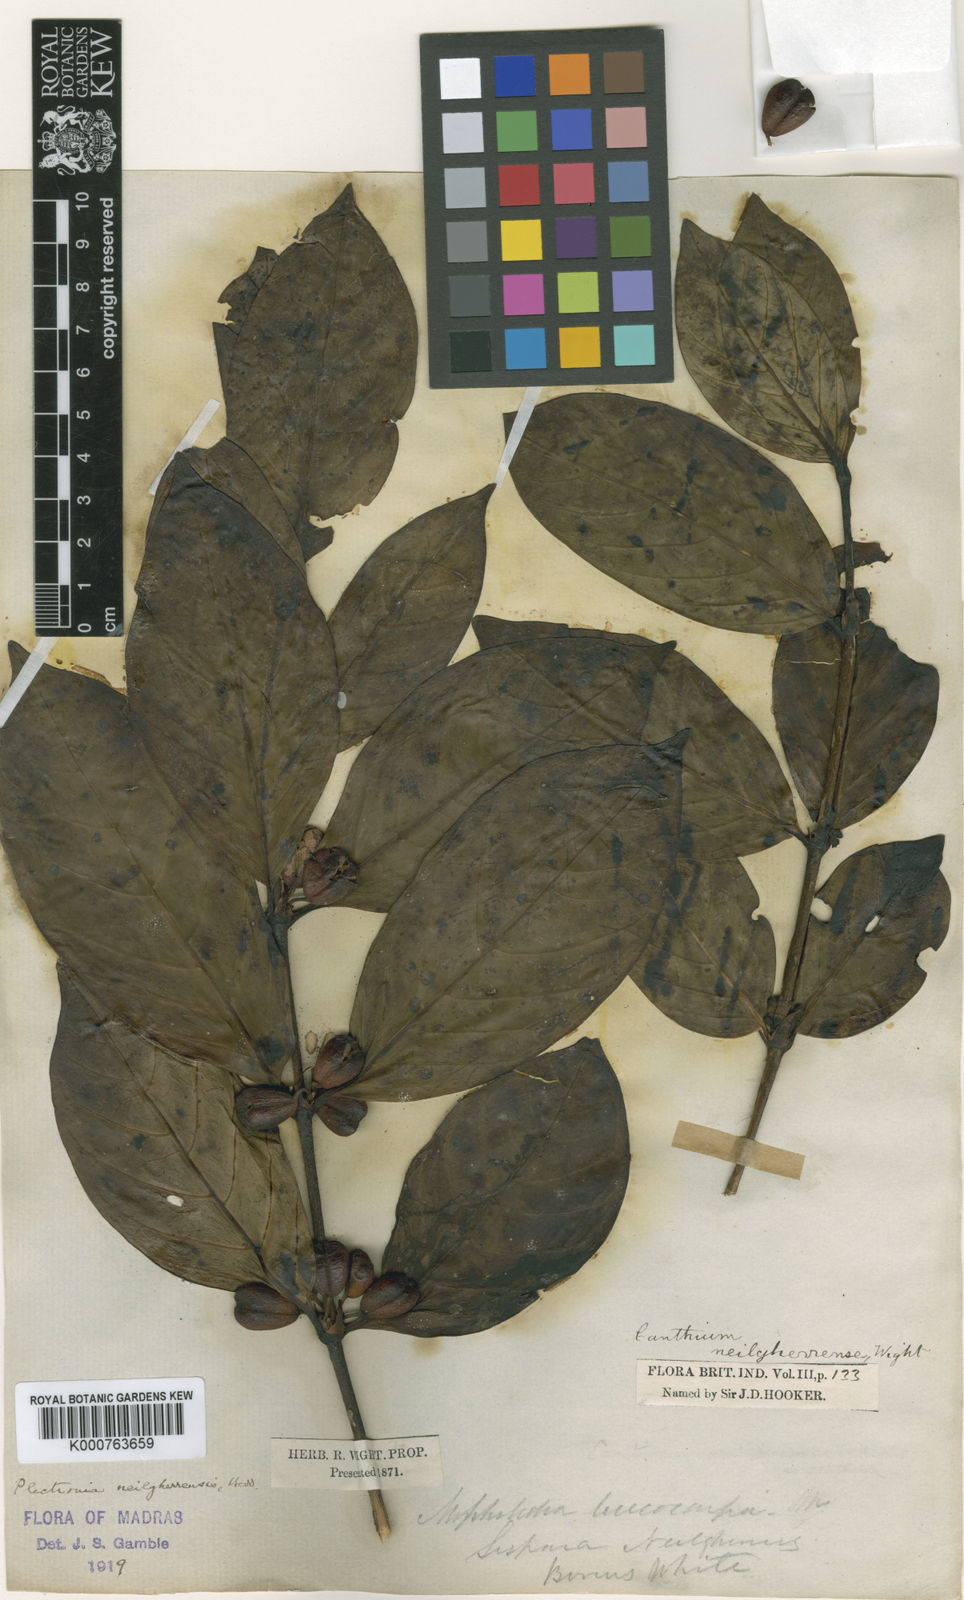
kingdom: Plantae
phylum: Tracheophyta
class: Magnoliopsida
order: Gentianales
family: Rubiaceae
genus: Canthiumera
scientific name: Canthiumera neilgherrensis
